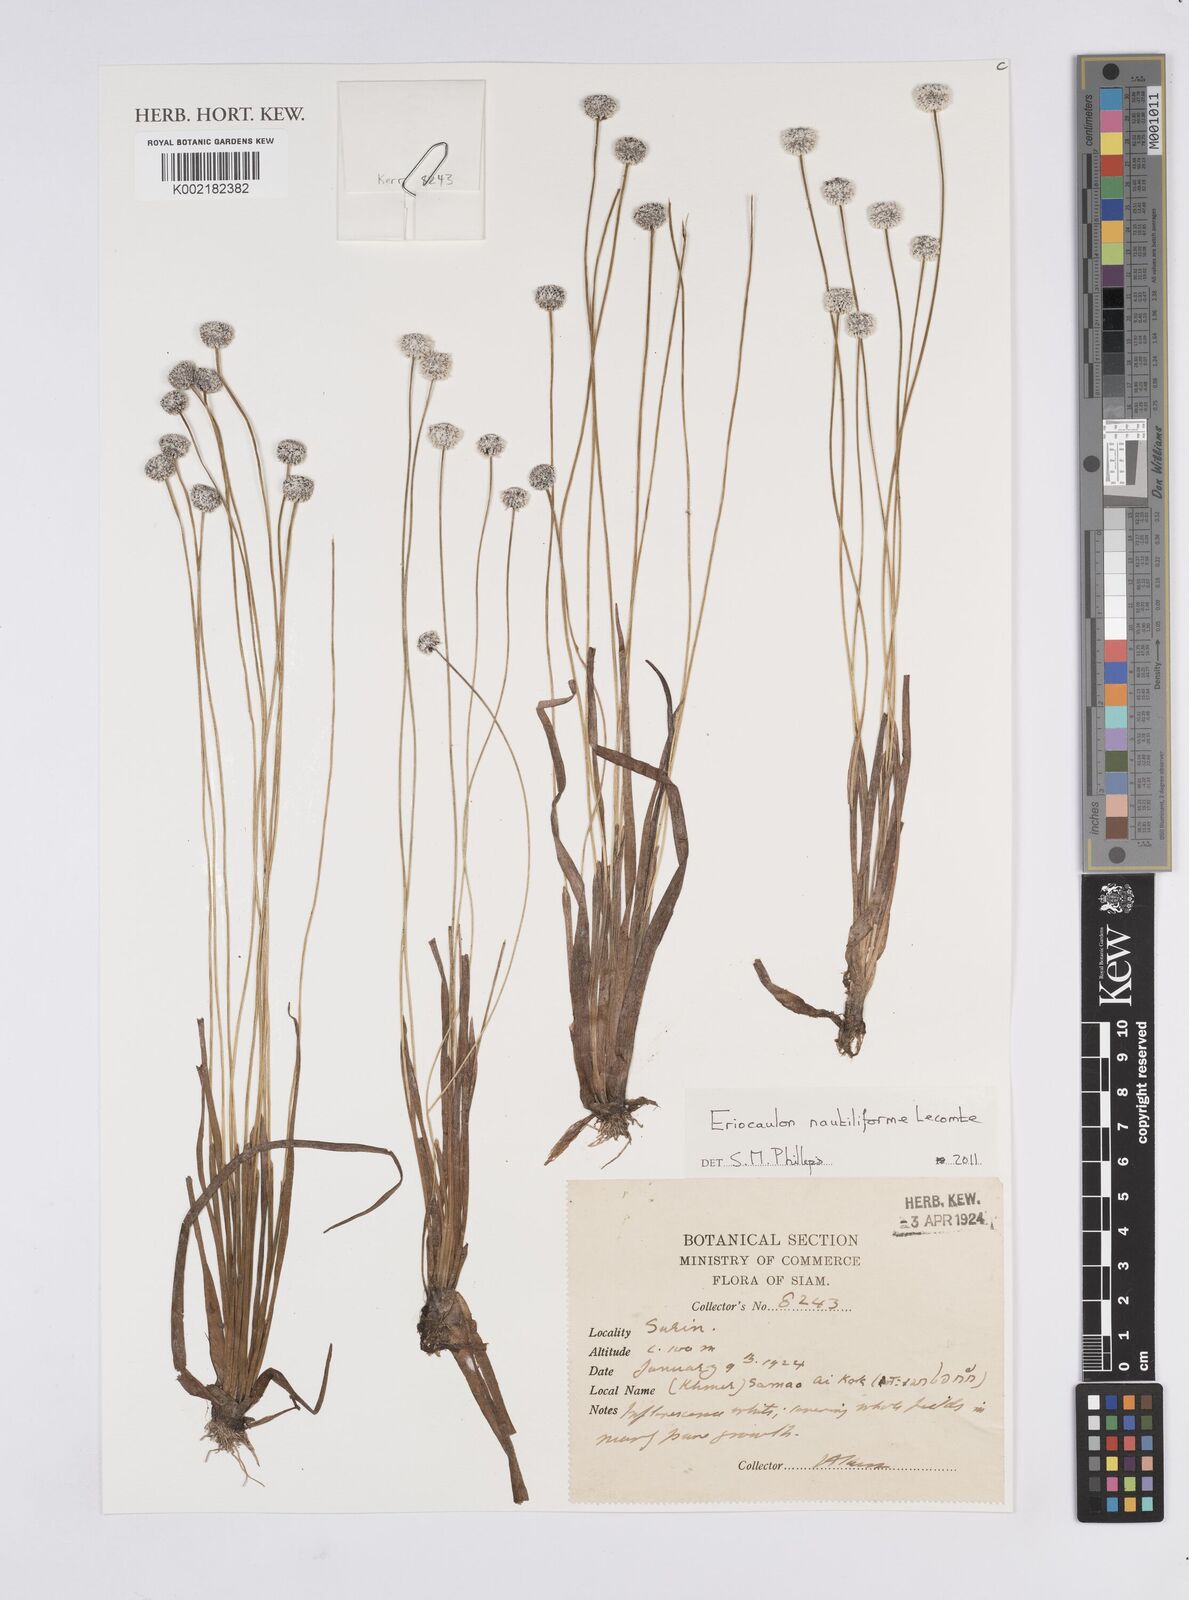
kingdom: Plantae
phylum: Tracheophyta
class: Liliopsida
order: Poales
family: Eriocaulaceae
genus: Eriocaulon
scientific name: Eriocaulon nautiliforme
